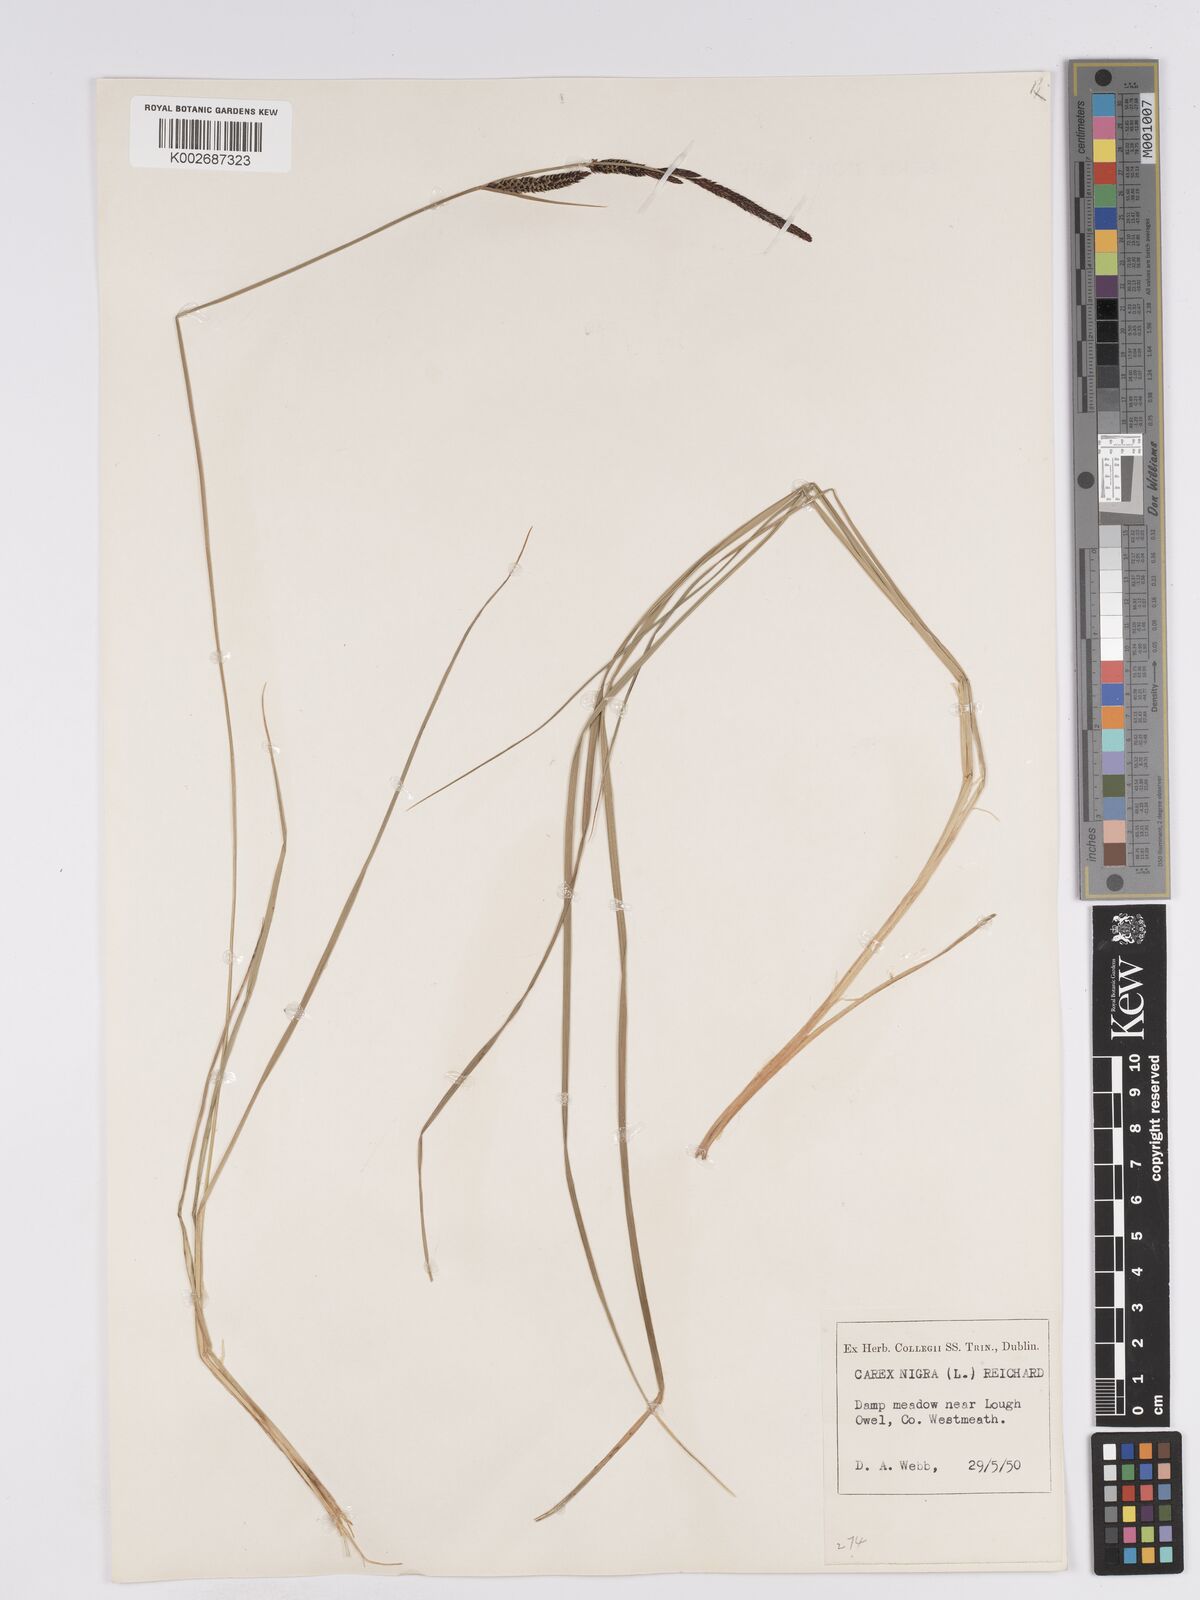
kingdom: Plantae
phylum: Tracheophyta
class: Liliopsida
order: Poales
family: Cyperaceae
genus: Carex
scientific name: Carex nigra
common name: Common sedge
